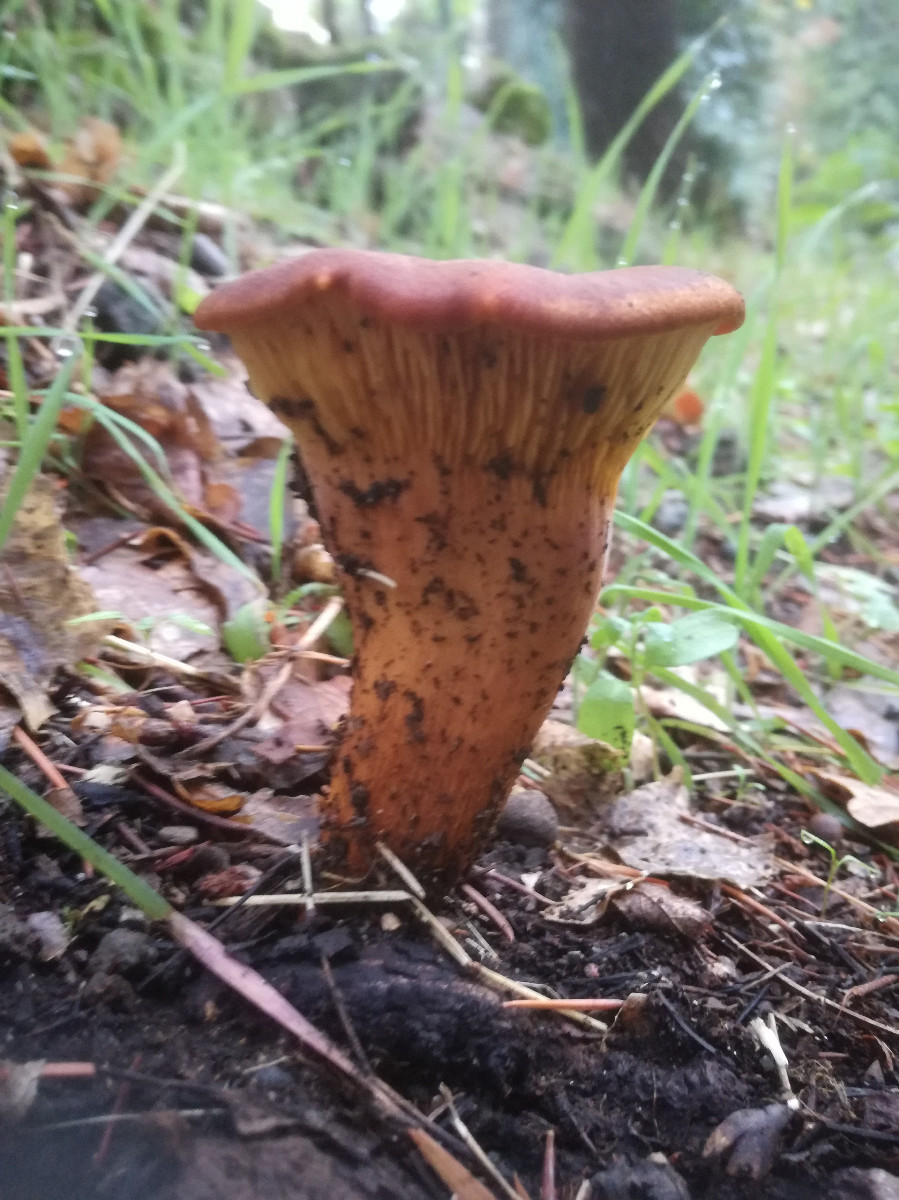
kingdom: Fungi
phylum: Basidiomycota
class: Agaricomycetes
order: Agaricales
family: Omphalotaceae
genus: Omphalotus
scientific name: Omphalotus olearius
